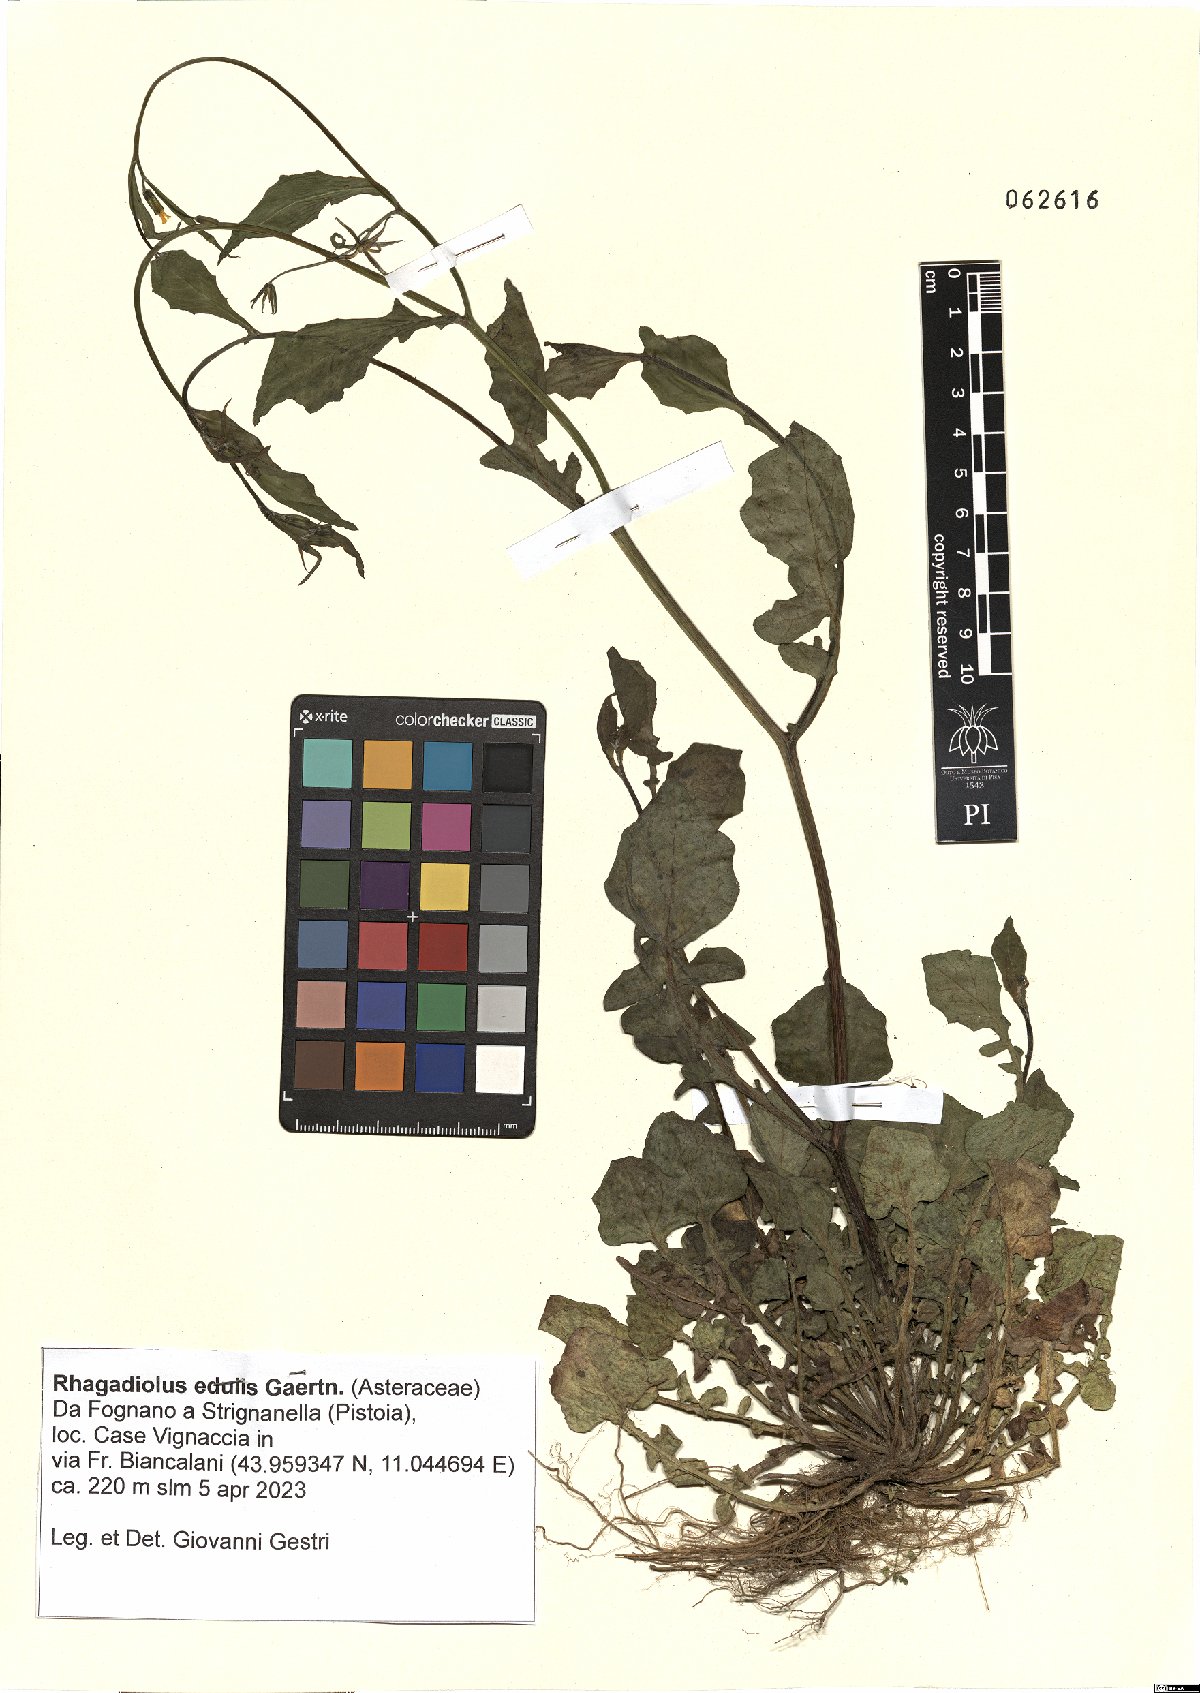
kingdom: Plantae
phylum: Tracheophyta
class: Magnoliopsida
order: Asterales
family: Asteraceae
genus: Rhagadiolus
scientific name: Rhagadiolus edulis
